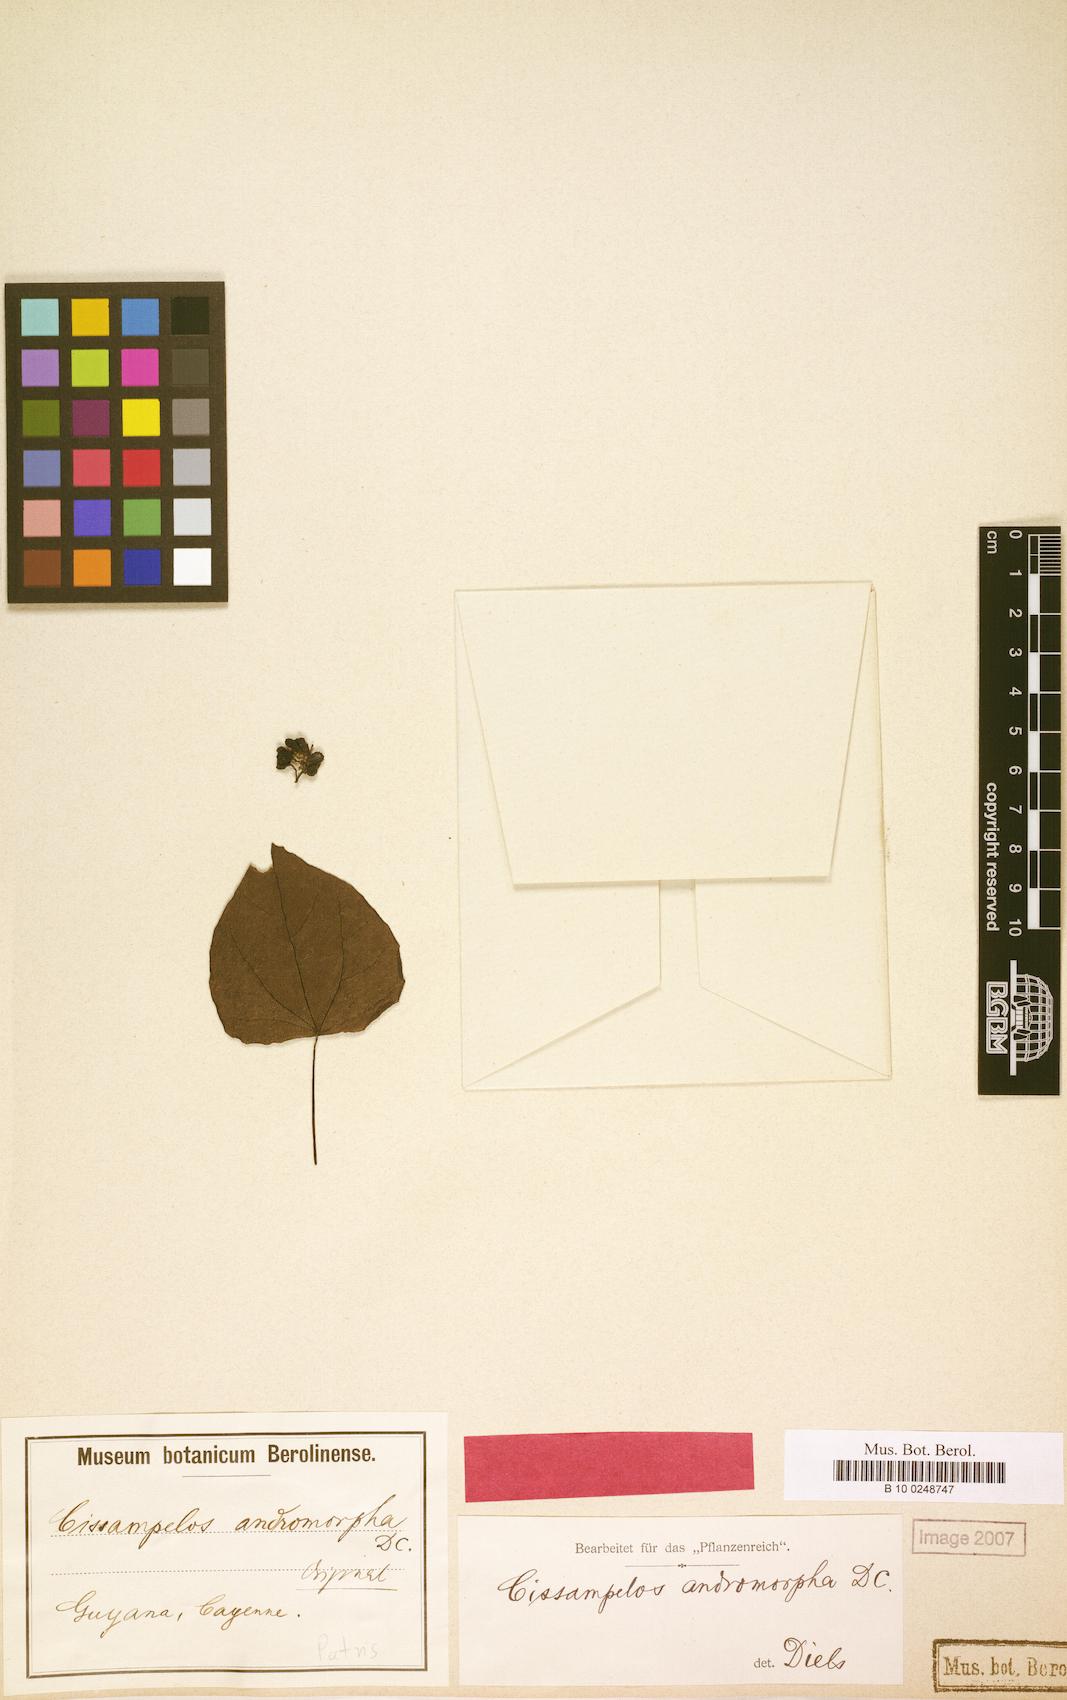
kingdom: Plantae
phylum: Tracheophyta
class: Magnoliopsida
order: Ranunculales
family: Menispermaceae
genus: Cissampelos
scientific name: Cissampelos andromorpha
